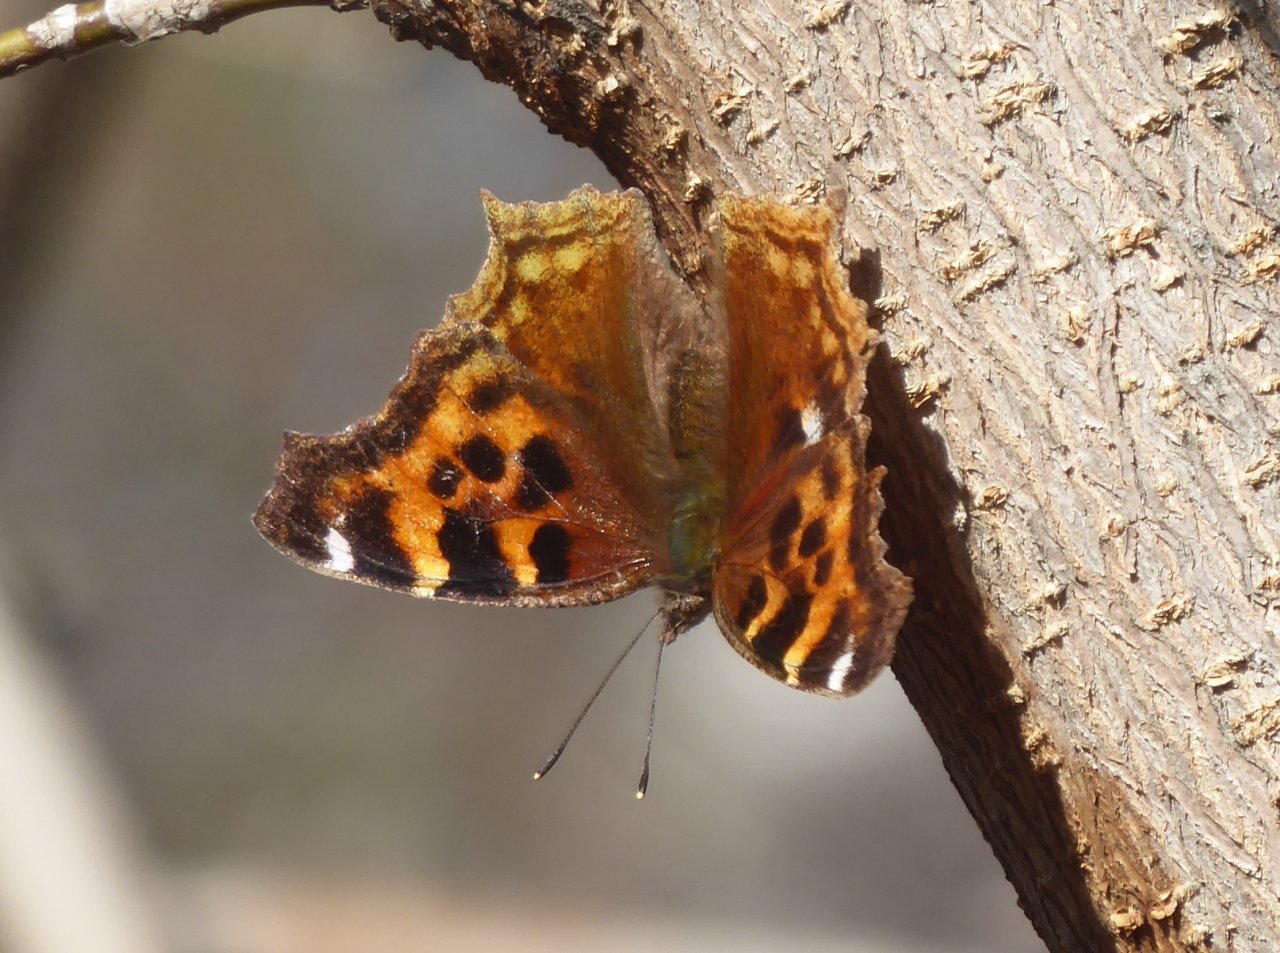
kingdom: Animalia
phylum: Arthropoda
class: Insecta
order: Lepidoptera
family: Nymphalidae
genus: Polygonia
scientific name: Polygonia vaualbum
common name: Compton Tortoiseshell
